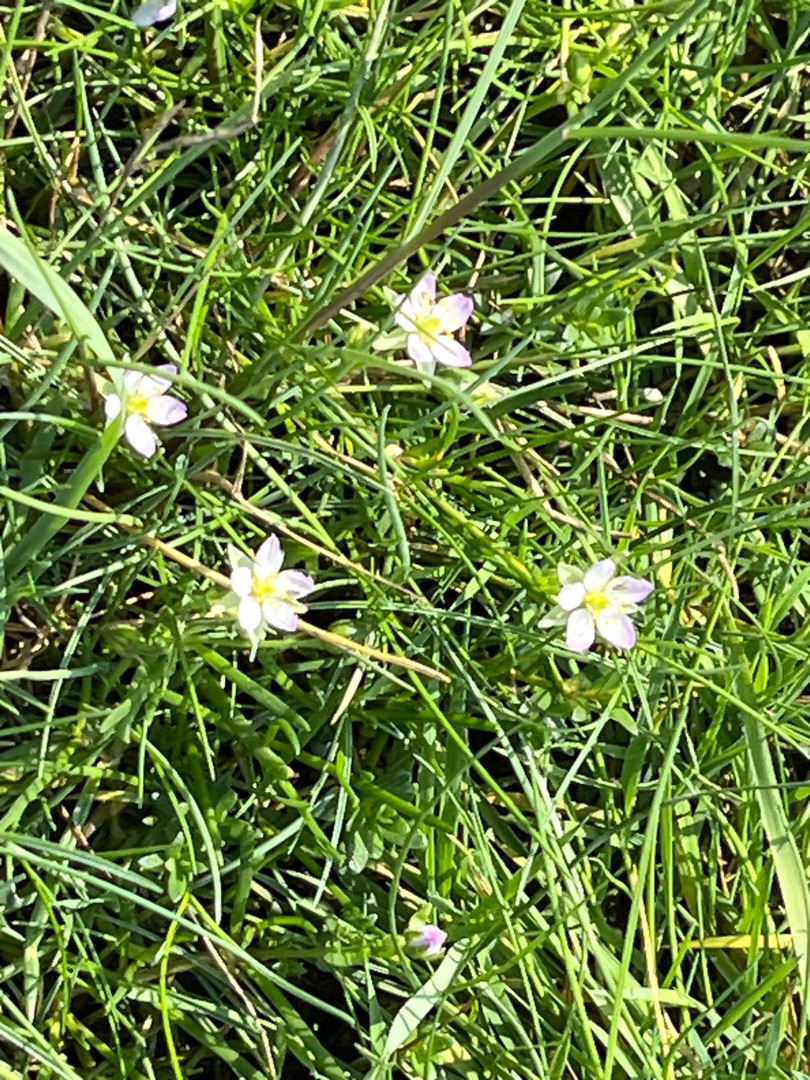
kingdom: Plantae
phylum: Tracheophyta
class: Magnoliopsida
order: Caryophyllales
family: Caryophyllaceae
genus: Spergularia
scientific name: Spergularia media
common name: Vingefrøet hindeknæ
